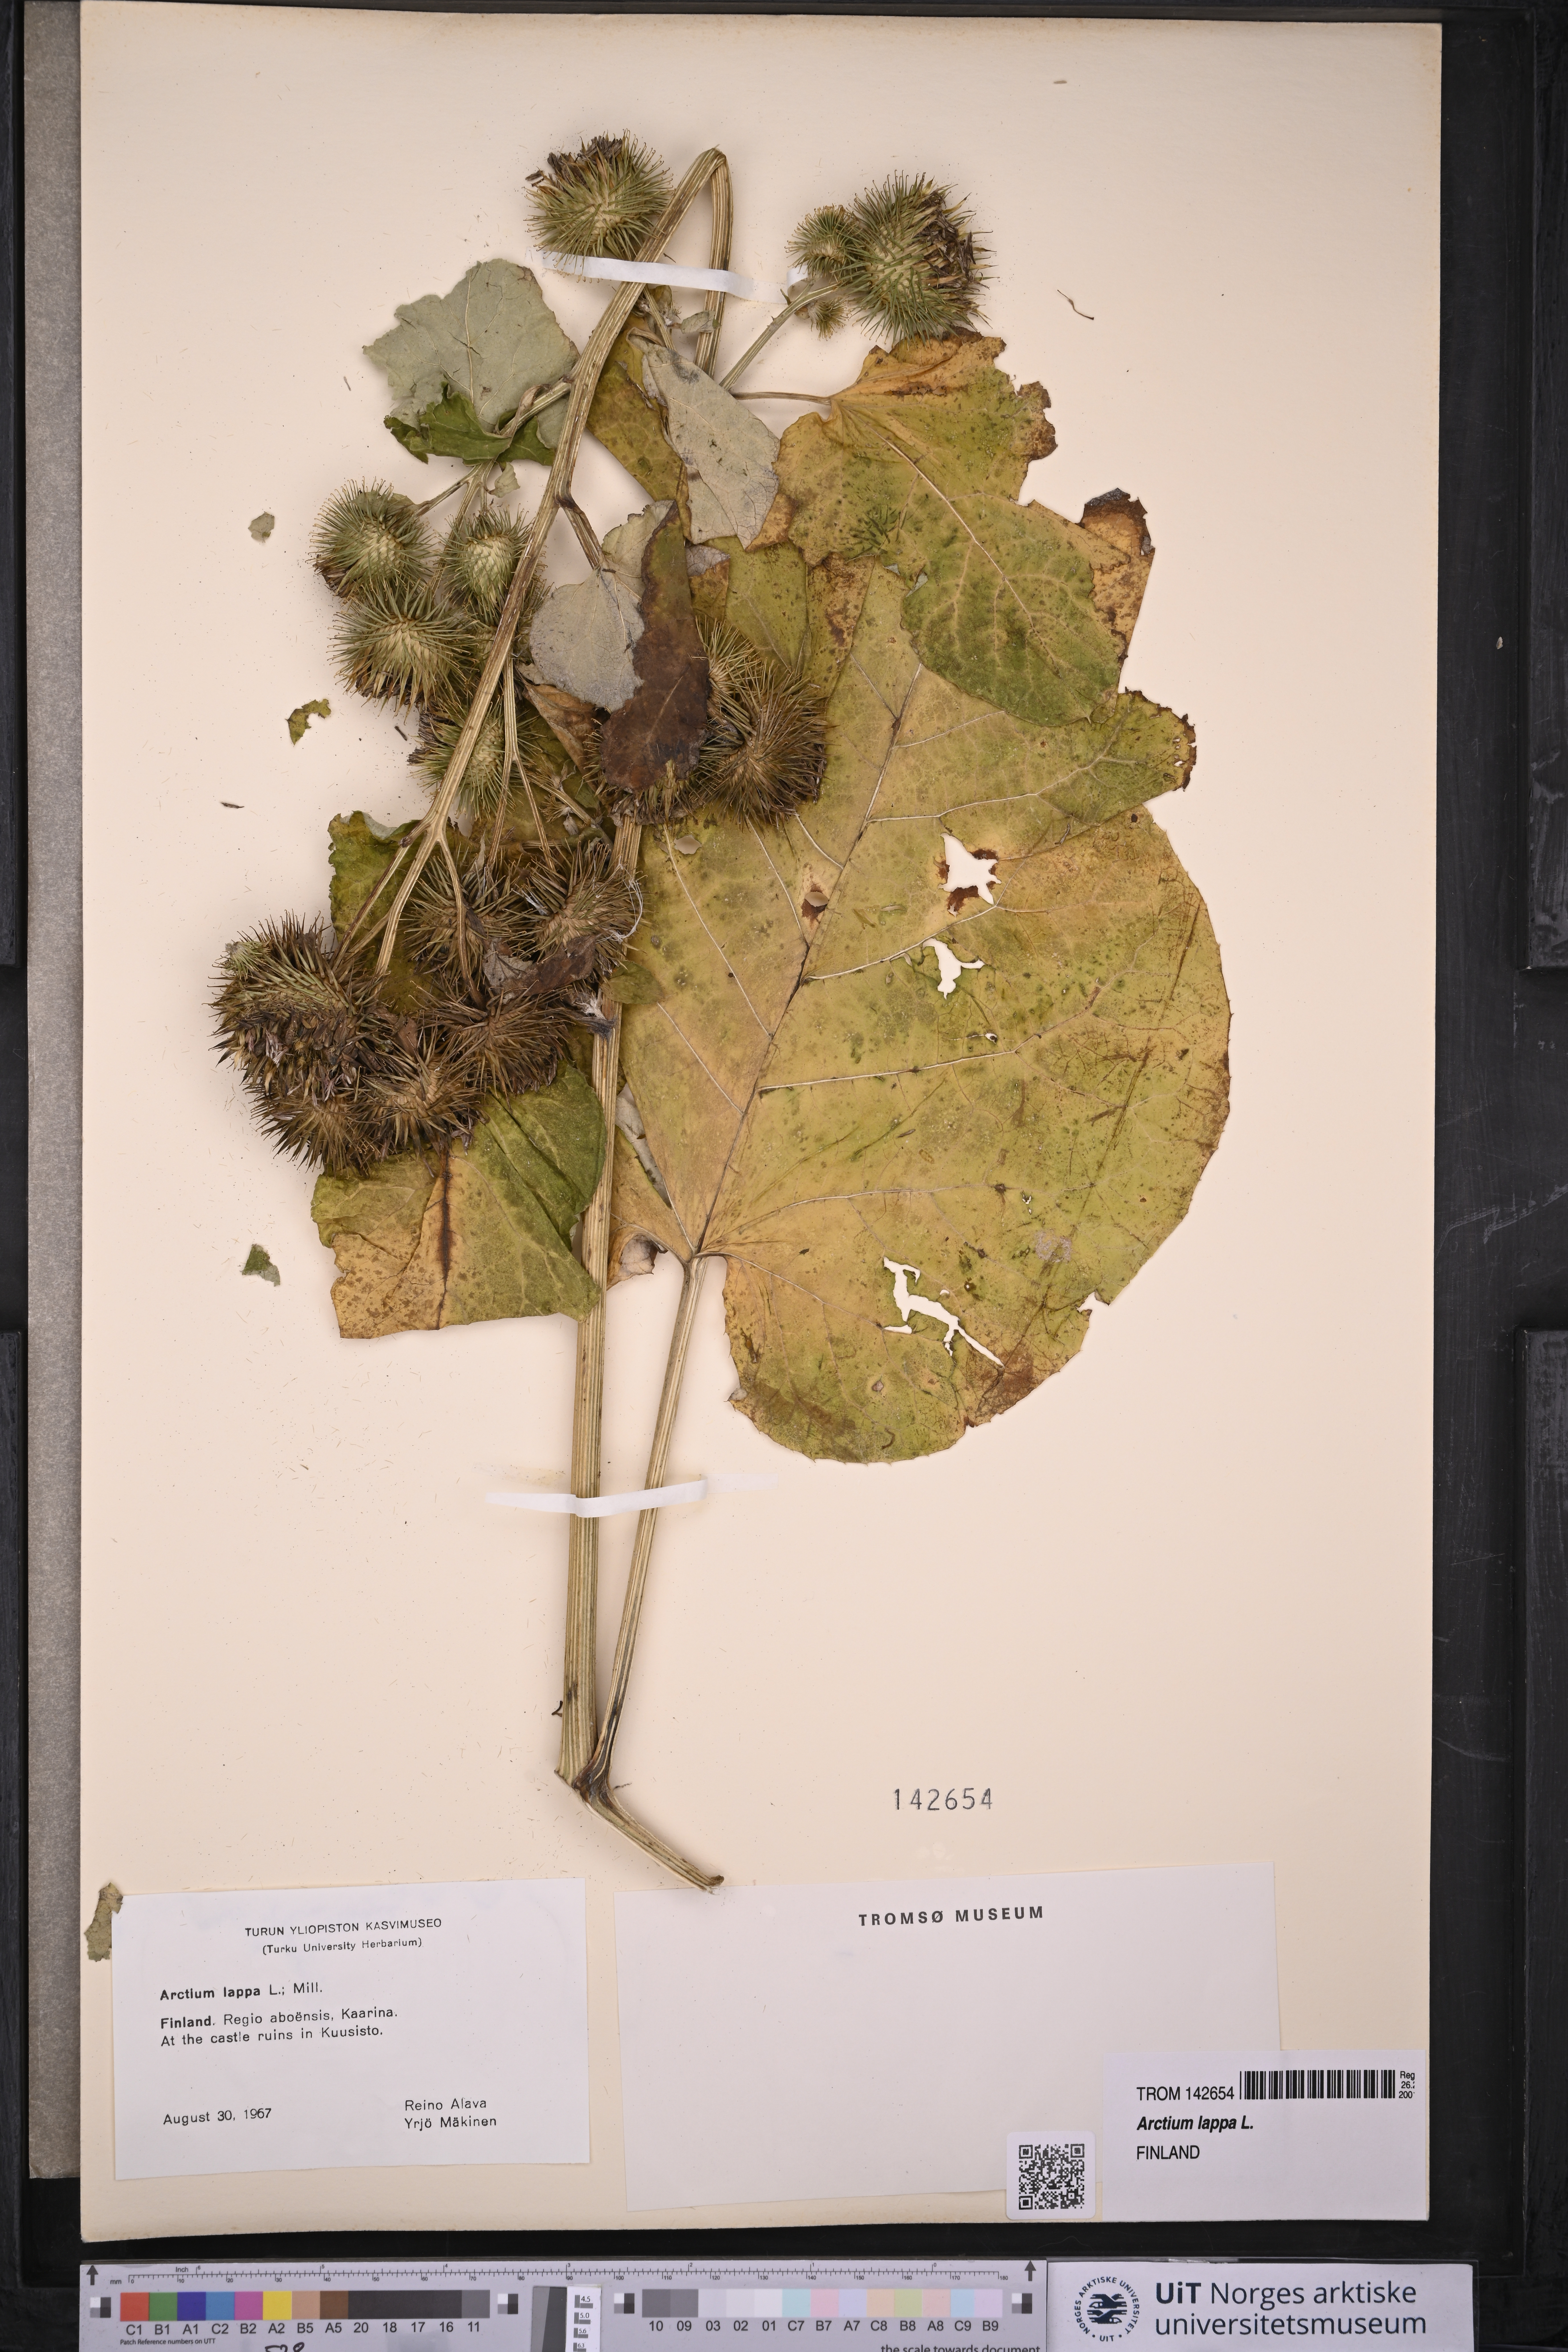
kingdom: Plantae
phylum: Tracheophyta
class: Magnoliopsida
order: Asterales
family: Asteraceae
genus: Arctium
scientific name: Arctium lappa
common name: Greater burdock
